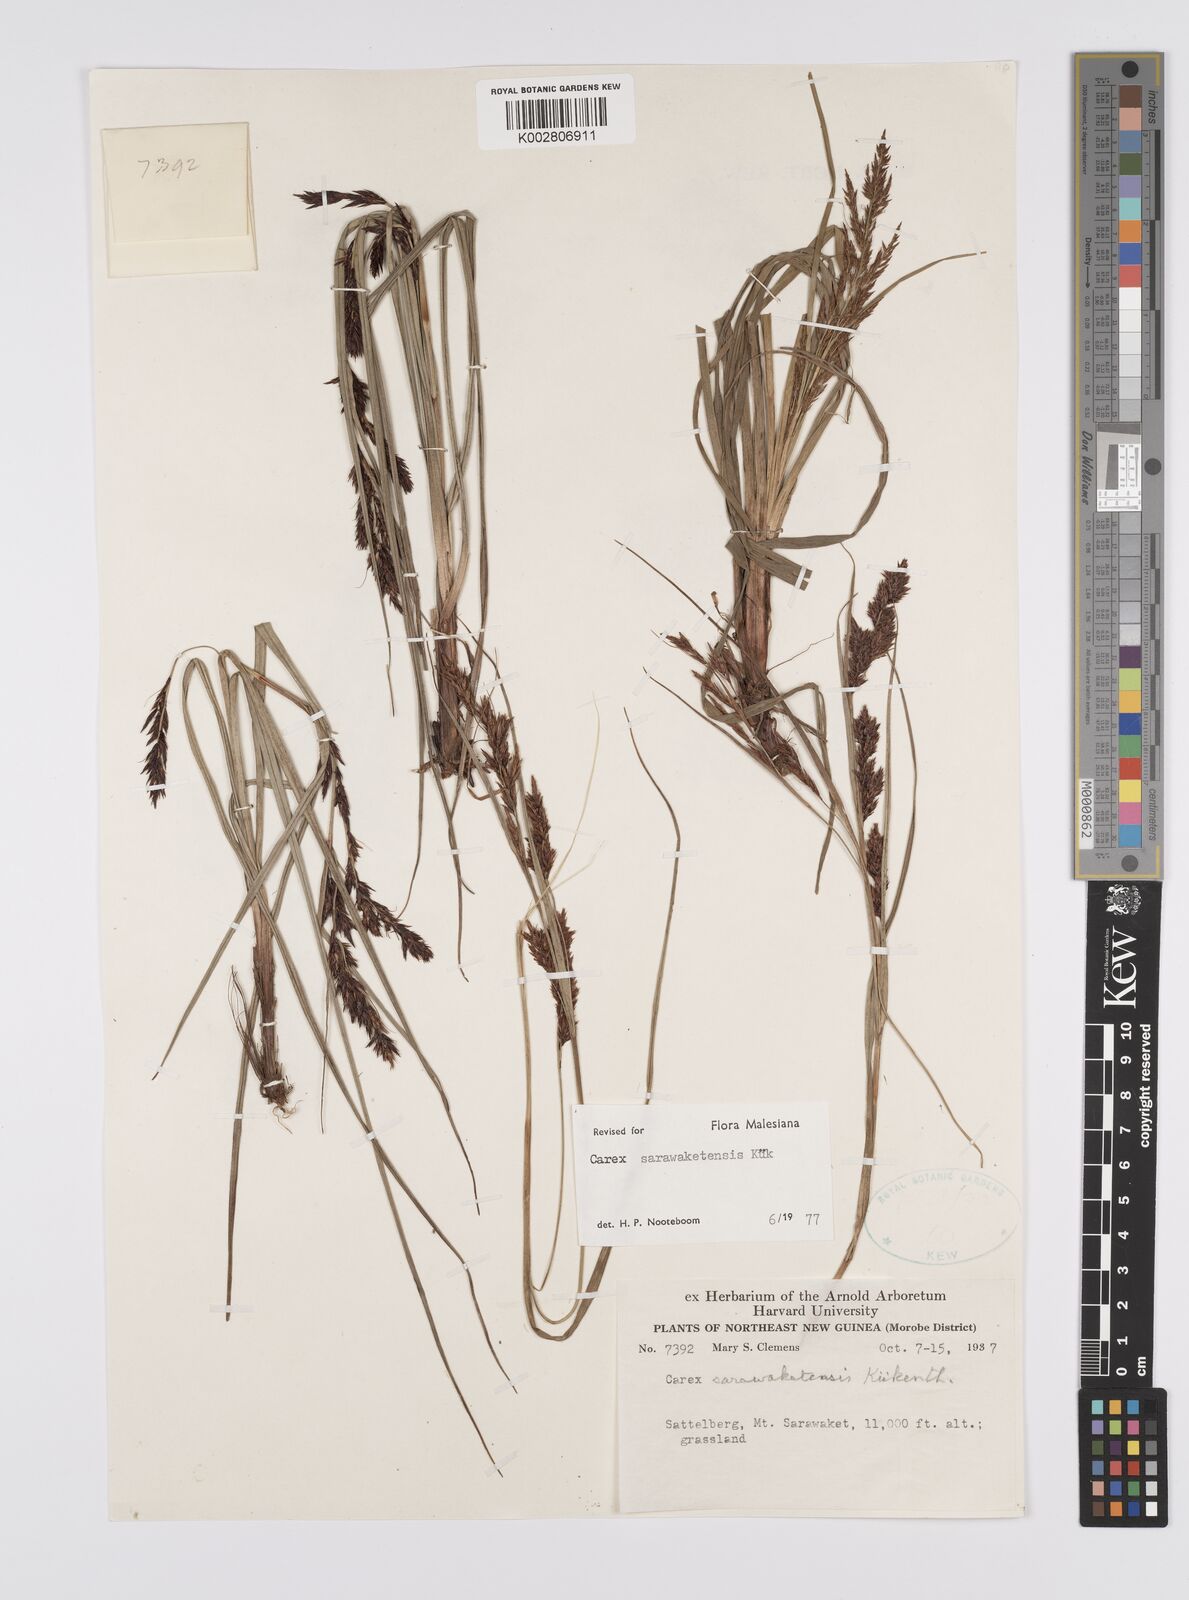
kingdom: Plantae
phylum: Tracheophyta
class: Liliopsida
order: Poales
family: Cyperaceae
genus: Carex
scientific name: Carex sarawaketensis
